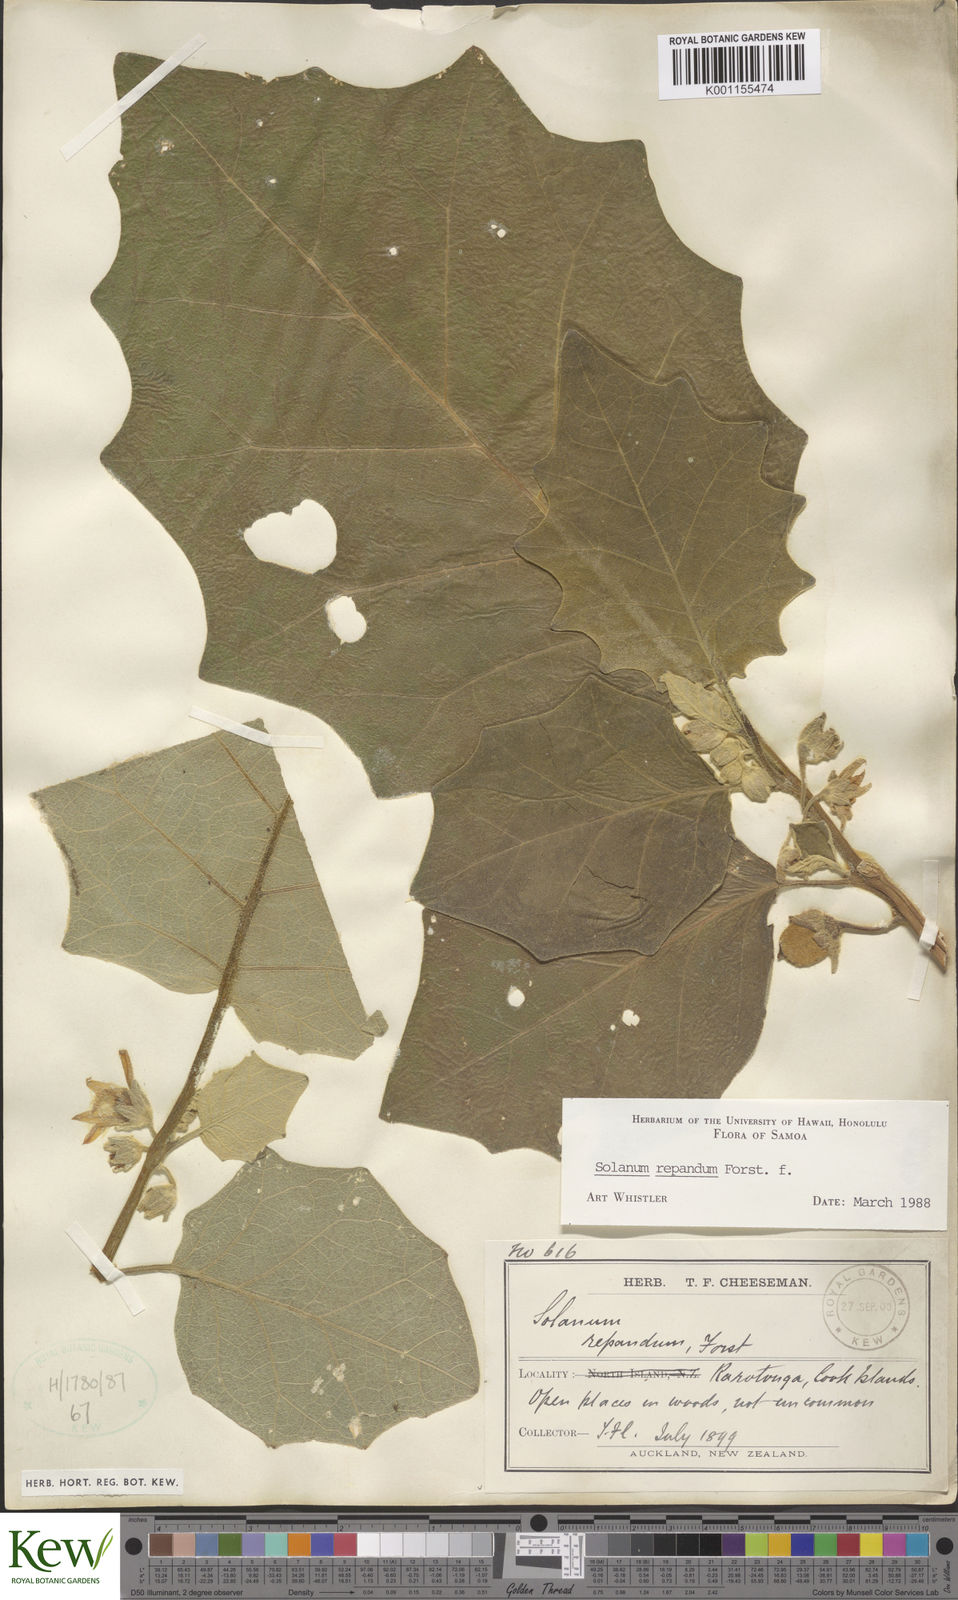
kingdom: Plantae
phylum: Tracheophyta
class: Magnoliopsida
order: Solanales
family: Solanaceae
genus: Solanum
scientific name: Solanum repandum
